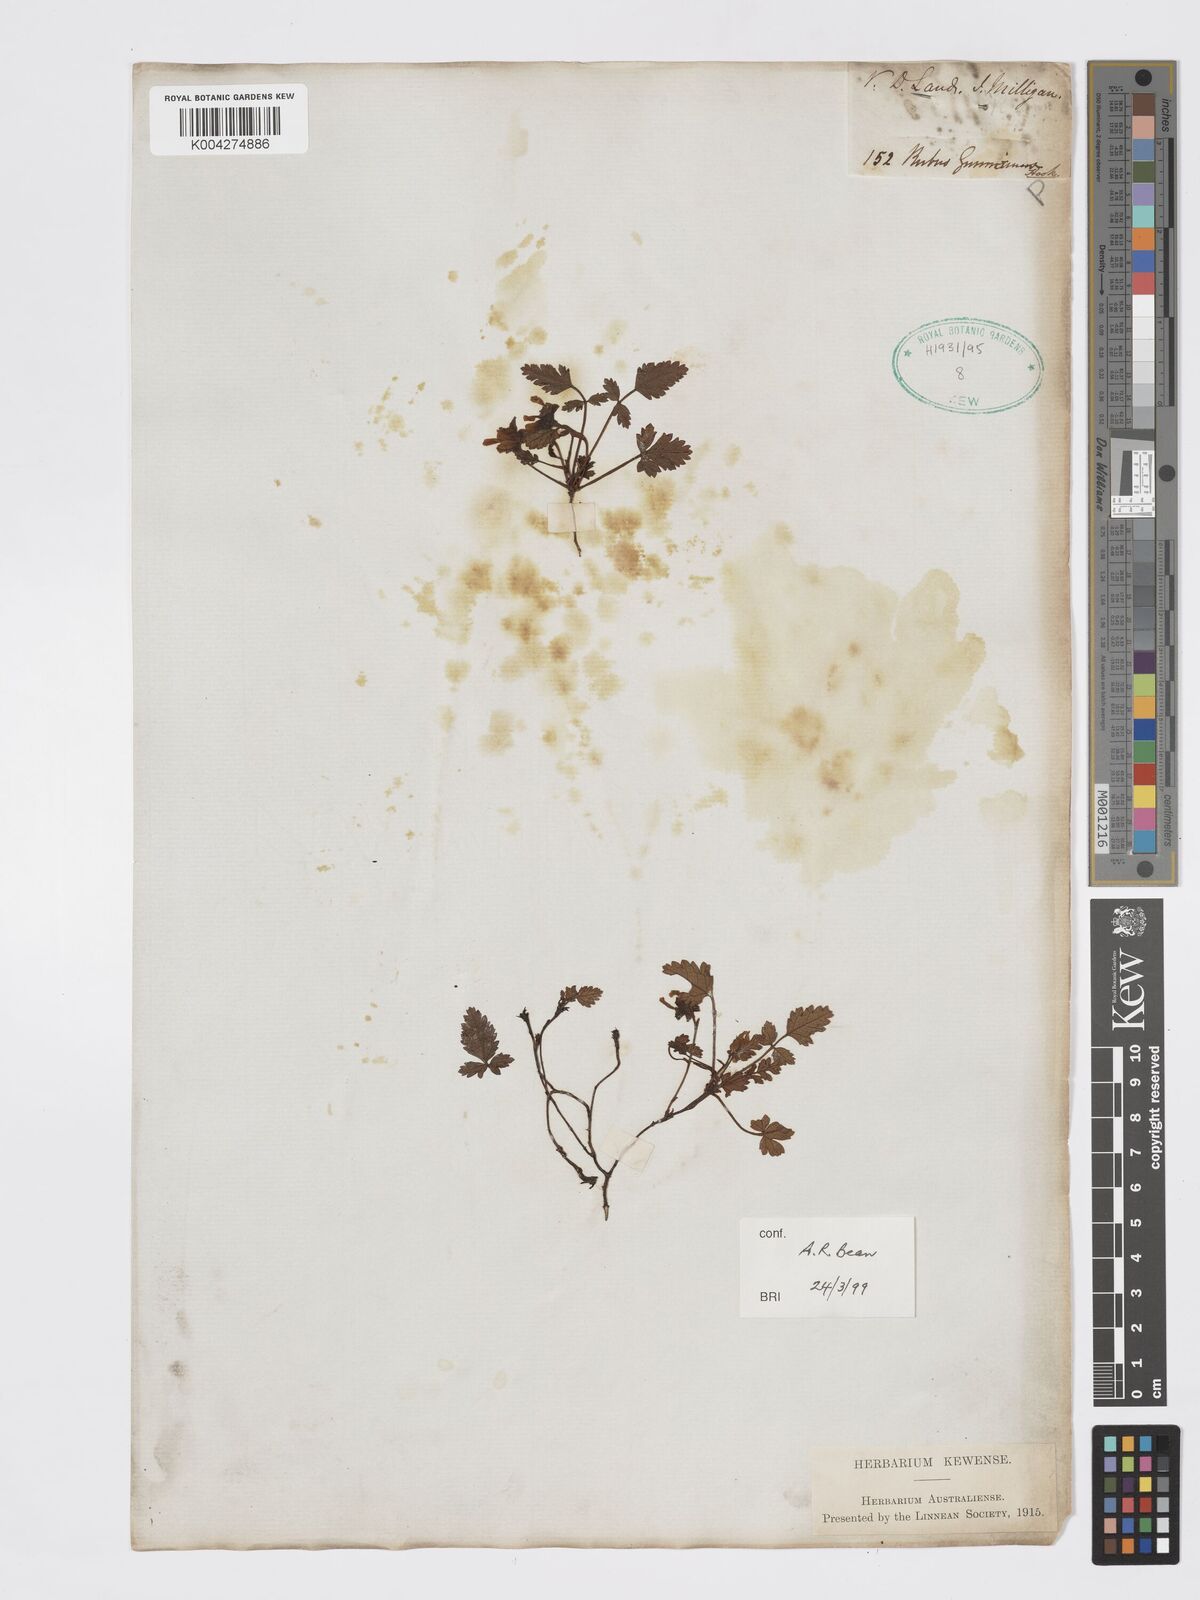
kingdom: Plantae
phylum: Tracheophyta
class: Magnoliopsida
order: Rosales
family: Rosaceae
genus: Rubus
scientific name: Rubus gunnianus
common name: Mountain raspberry
